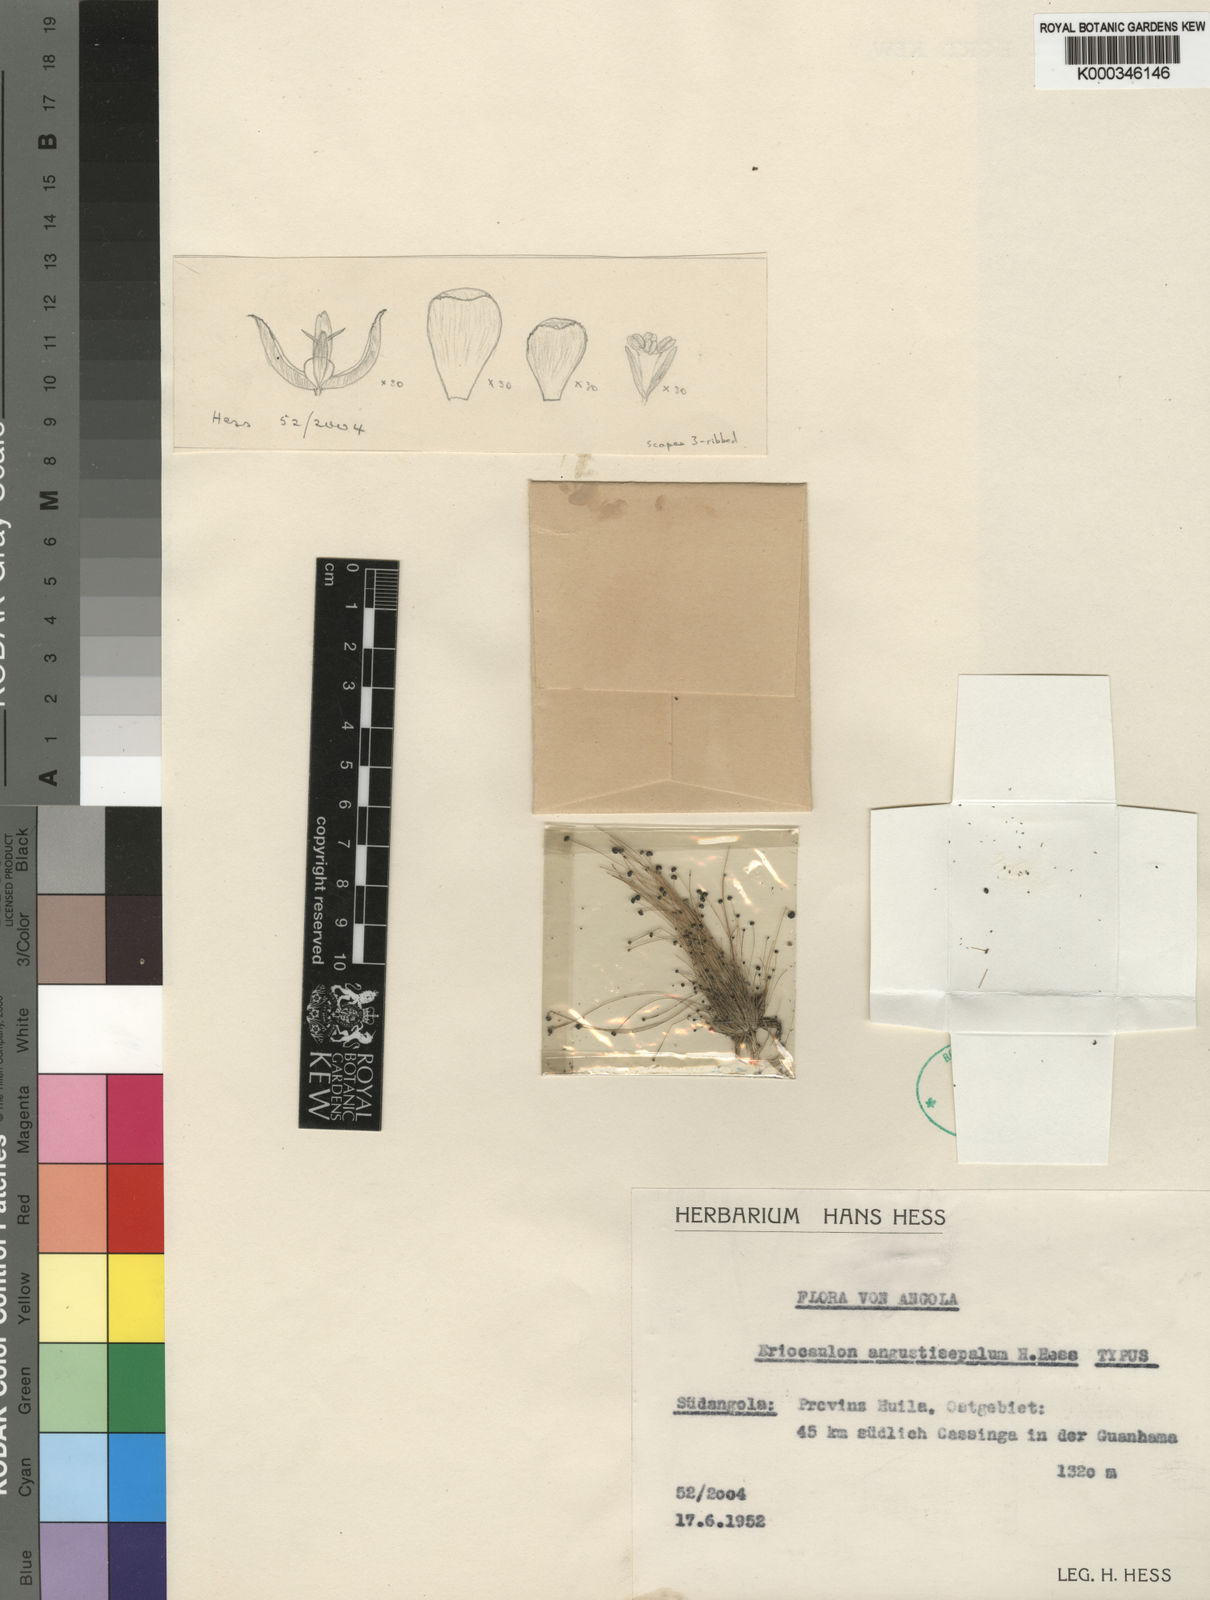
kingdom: Plantae
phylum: Tracheophyta
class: Liliopsida
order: Poales
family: Eriocaulaceae
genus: Eriocaulon
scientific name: Eriocaulon mutatum
